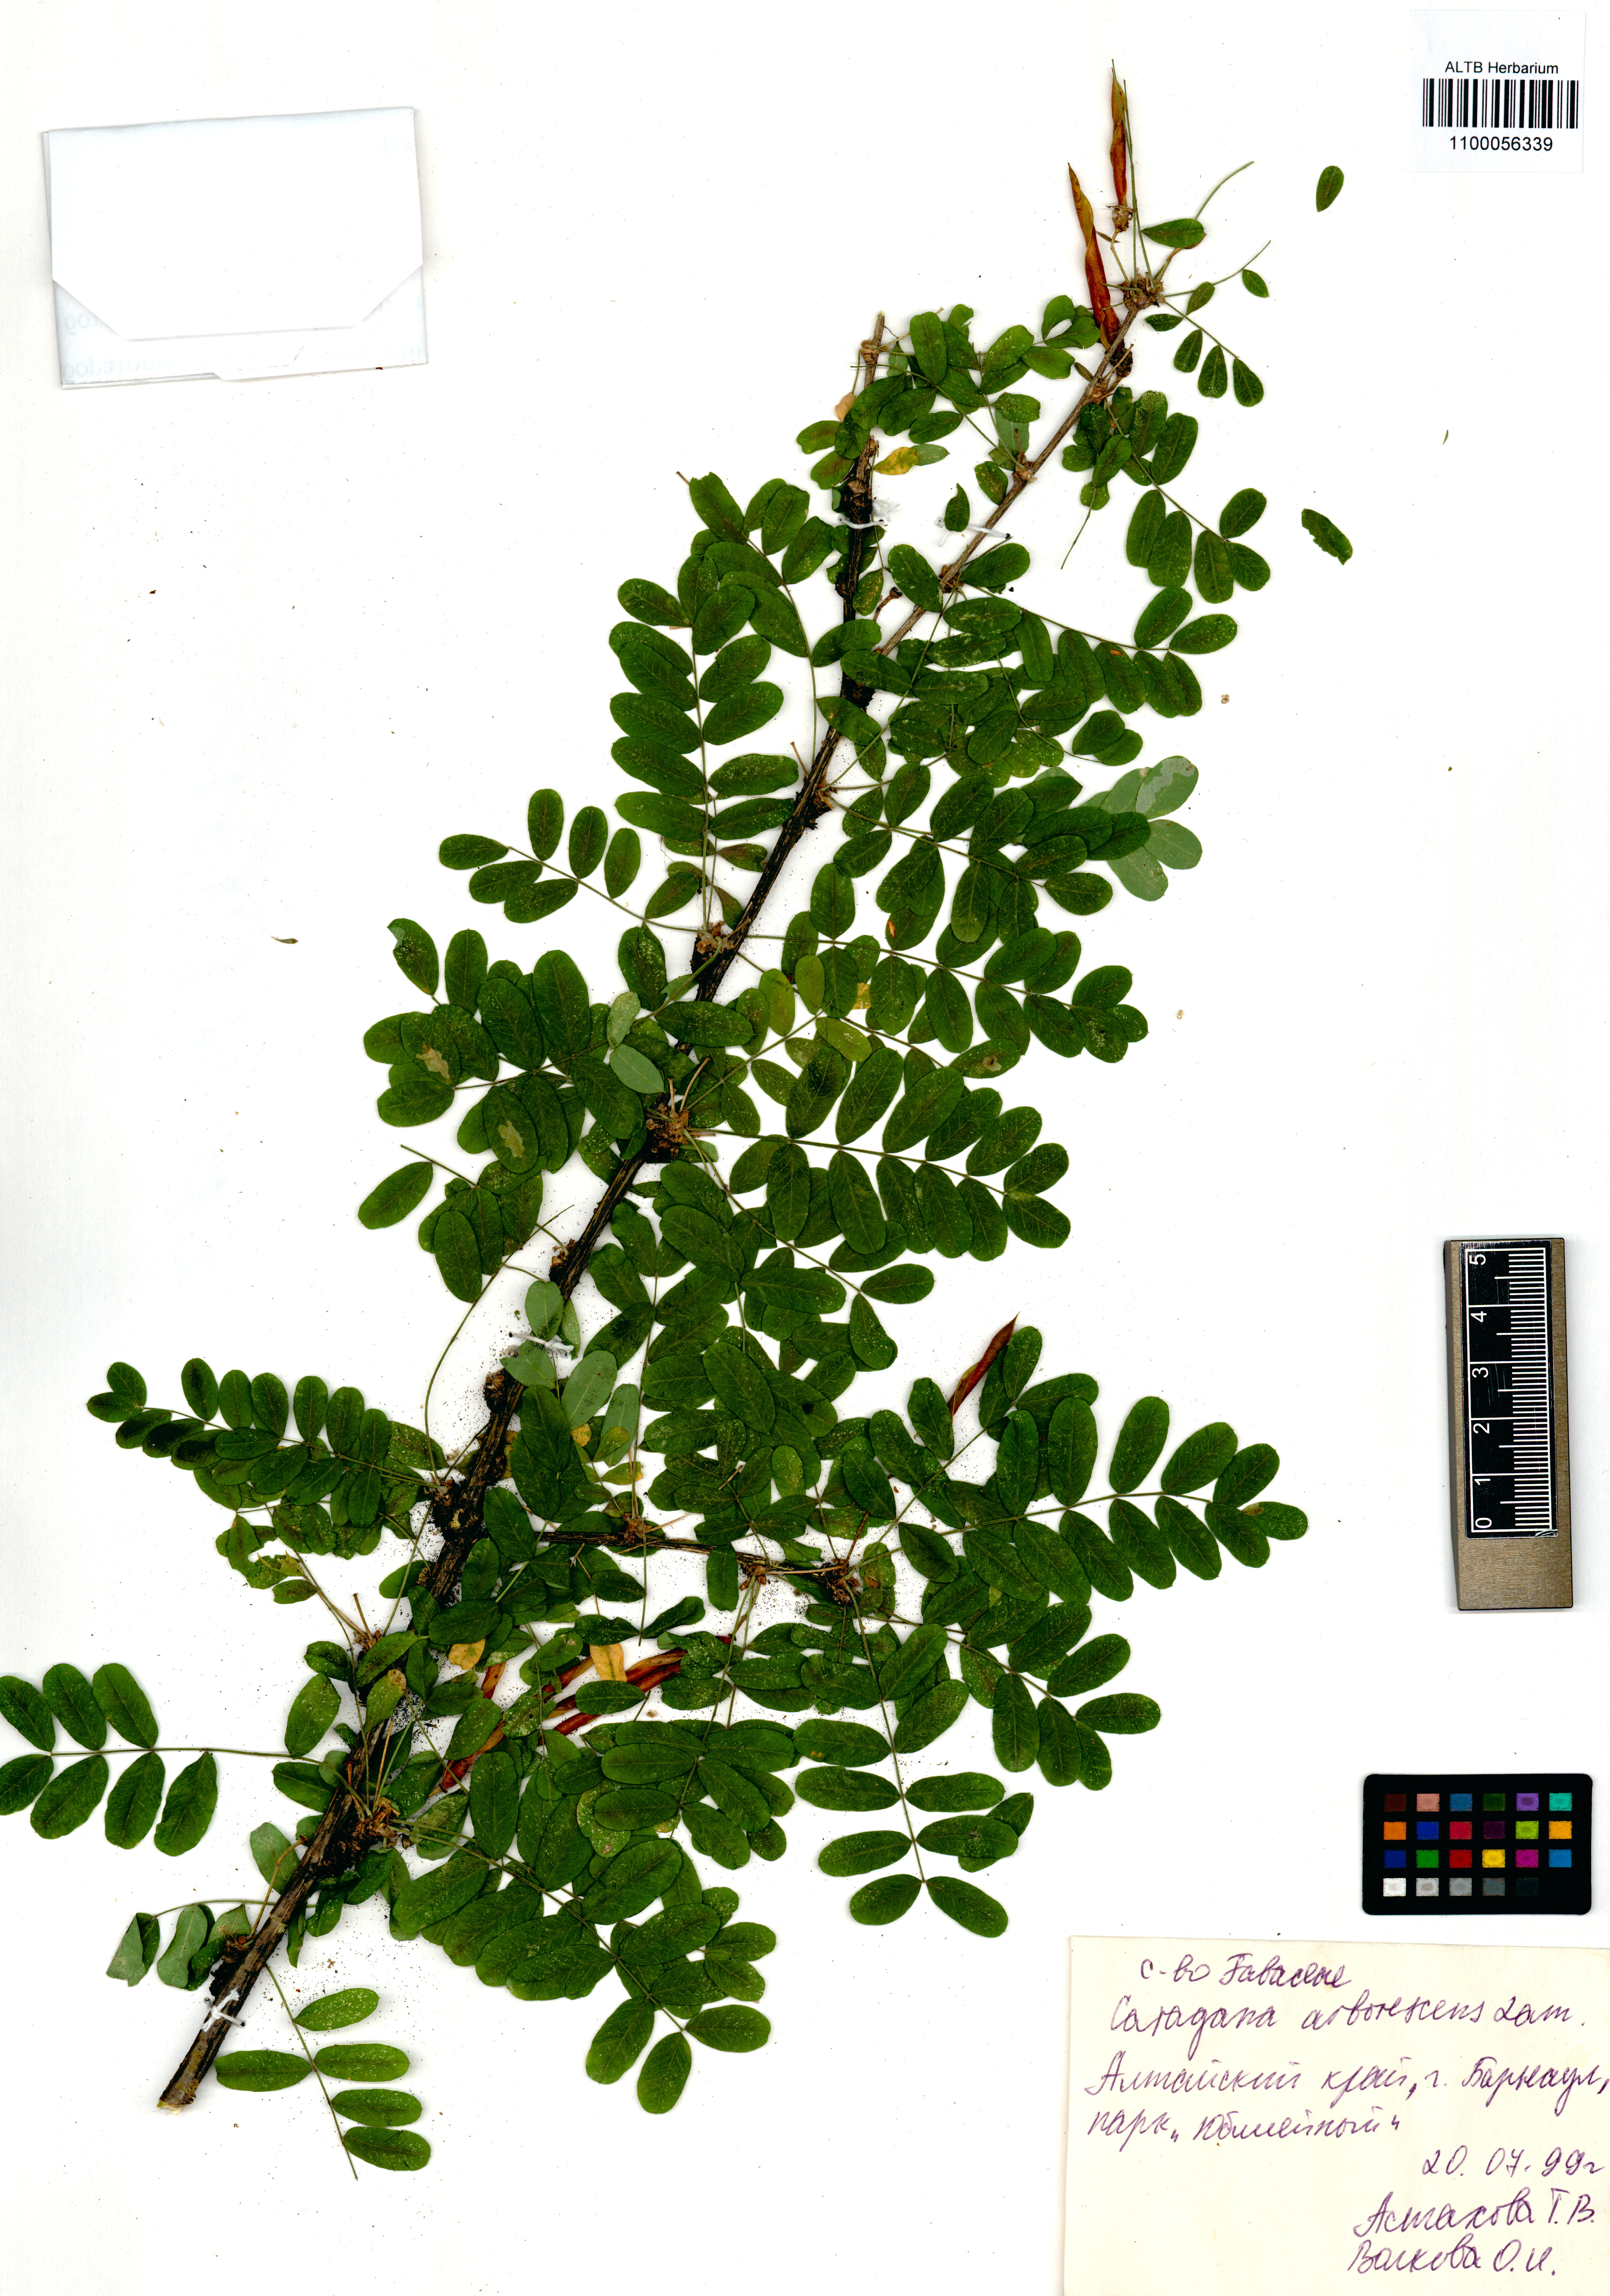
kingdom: Plantae
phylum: Tracheophyta
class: Magnoliopsida
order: Fabales
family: Fabaceae
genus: Caragana
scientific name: Caragana arborescens
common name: Siberian peashrub
